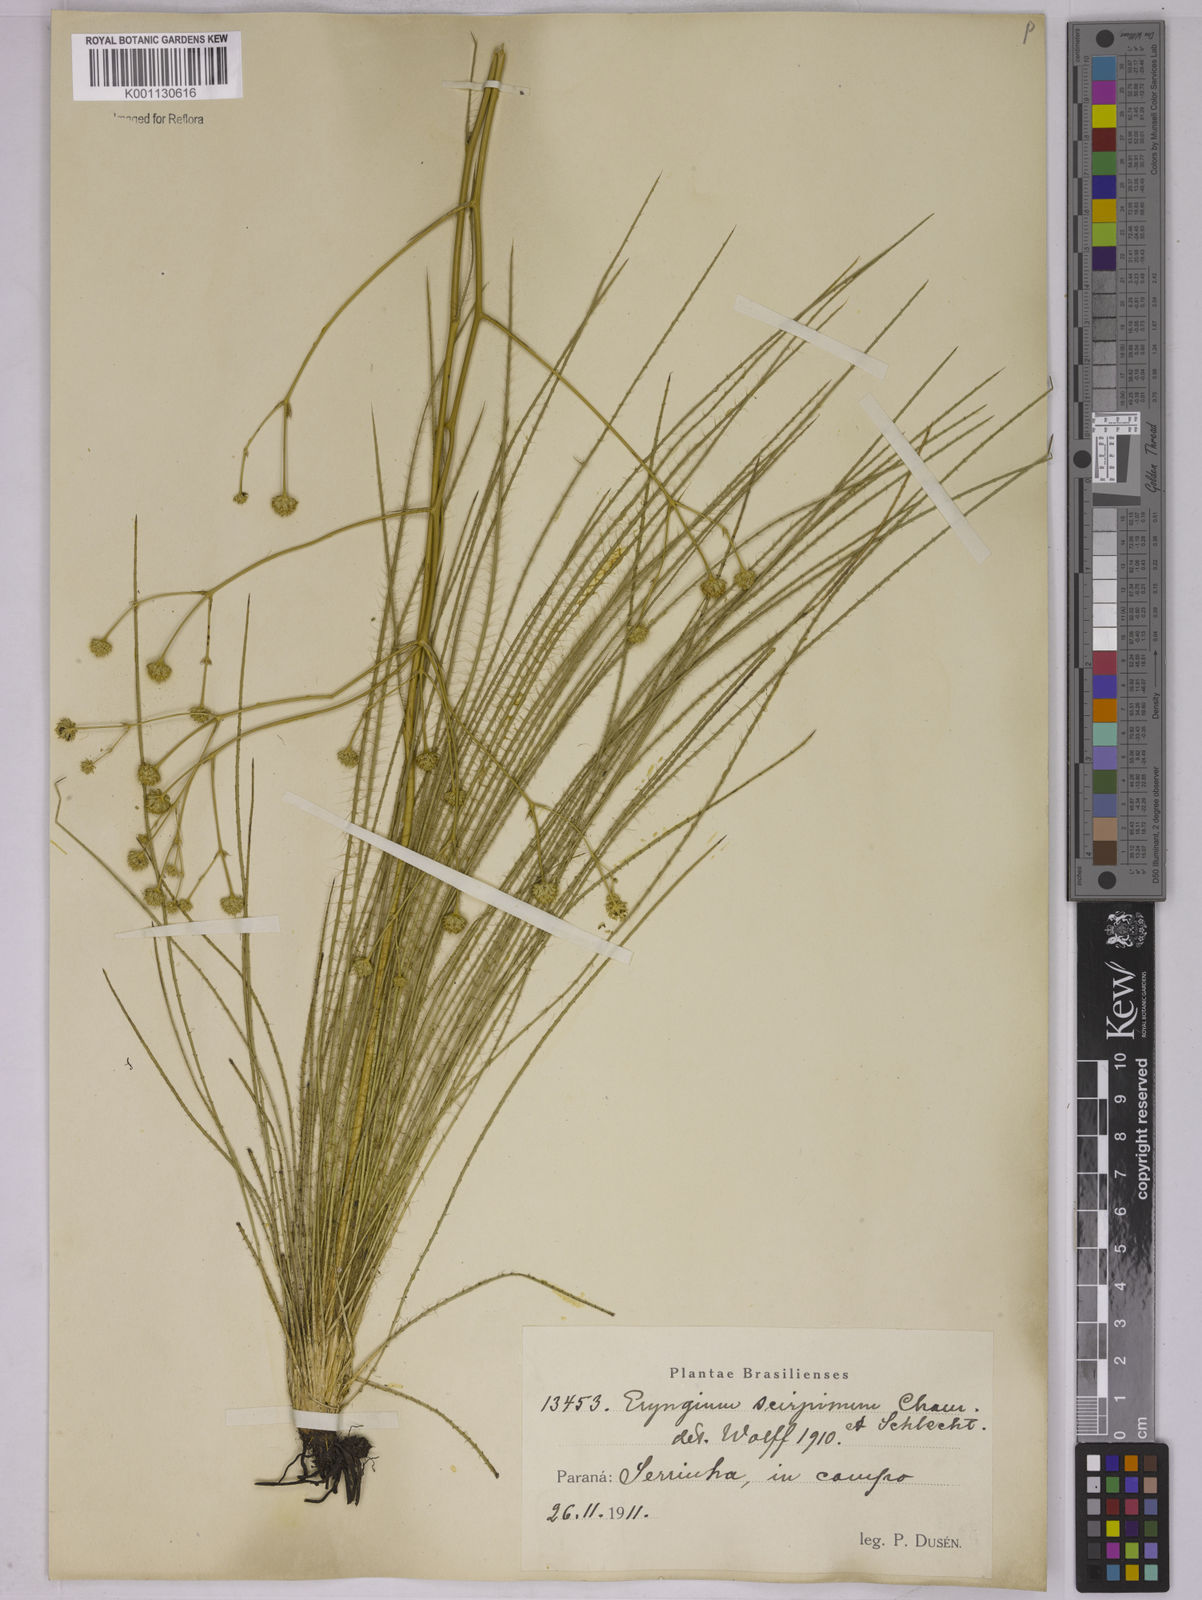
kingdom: Plantae
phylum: Tracheophyta
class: Magnoliopsida
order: Apiales
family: Apiaceae
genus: Eryngium
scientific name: Eryngium scirpinum
